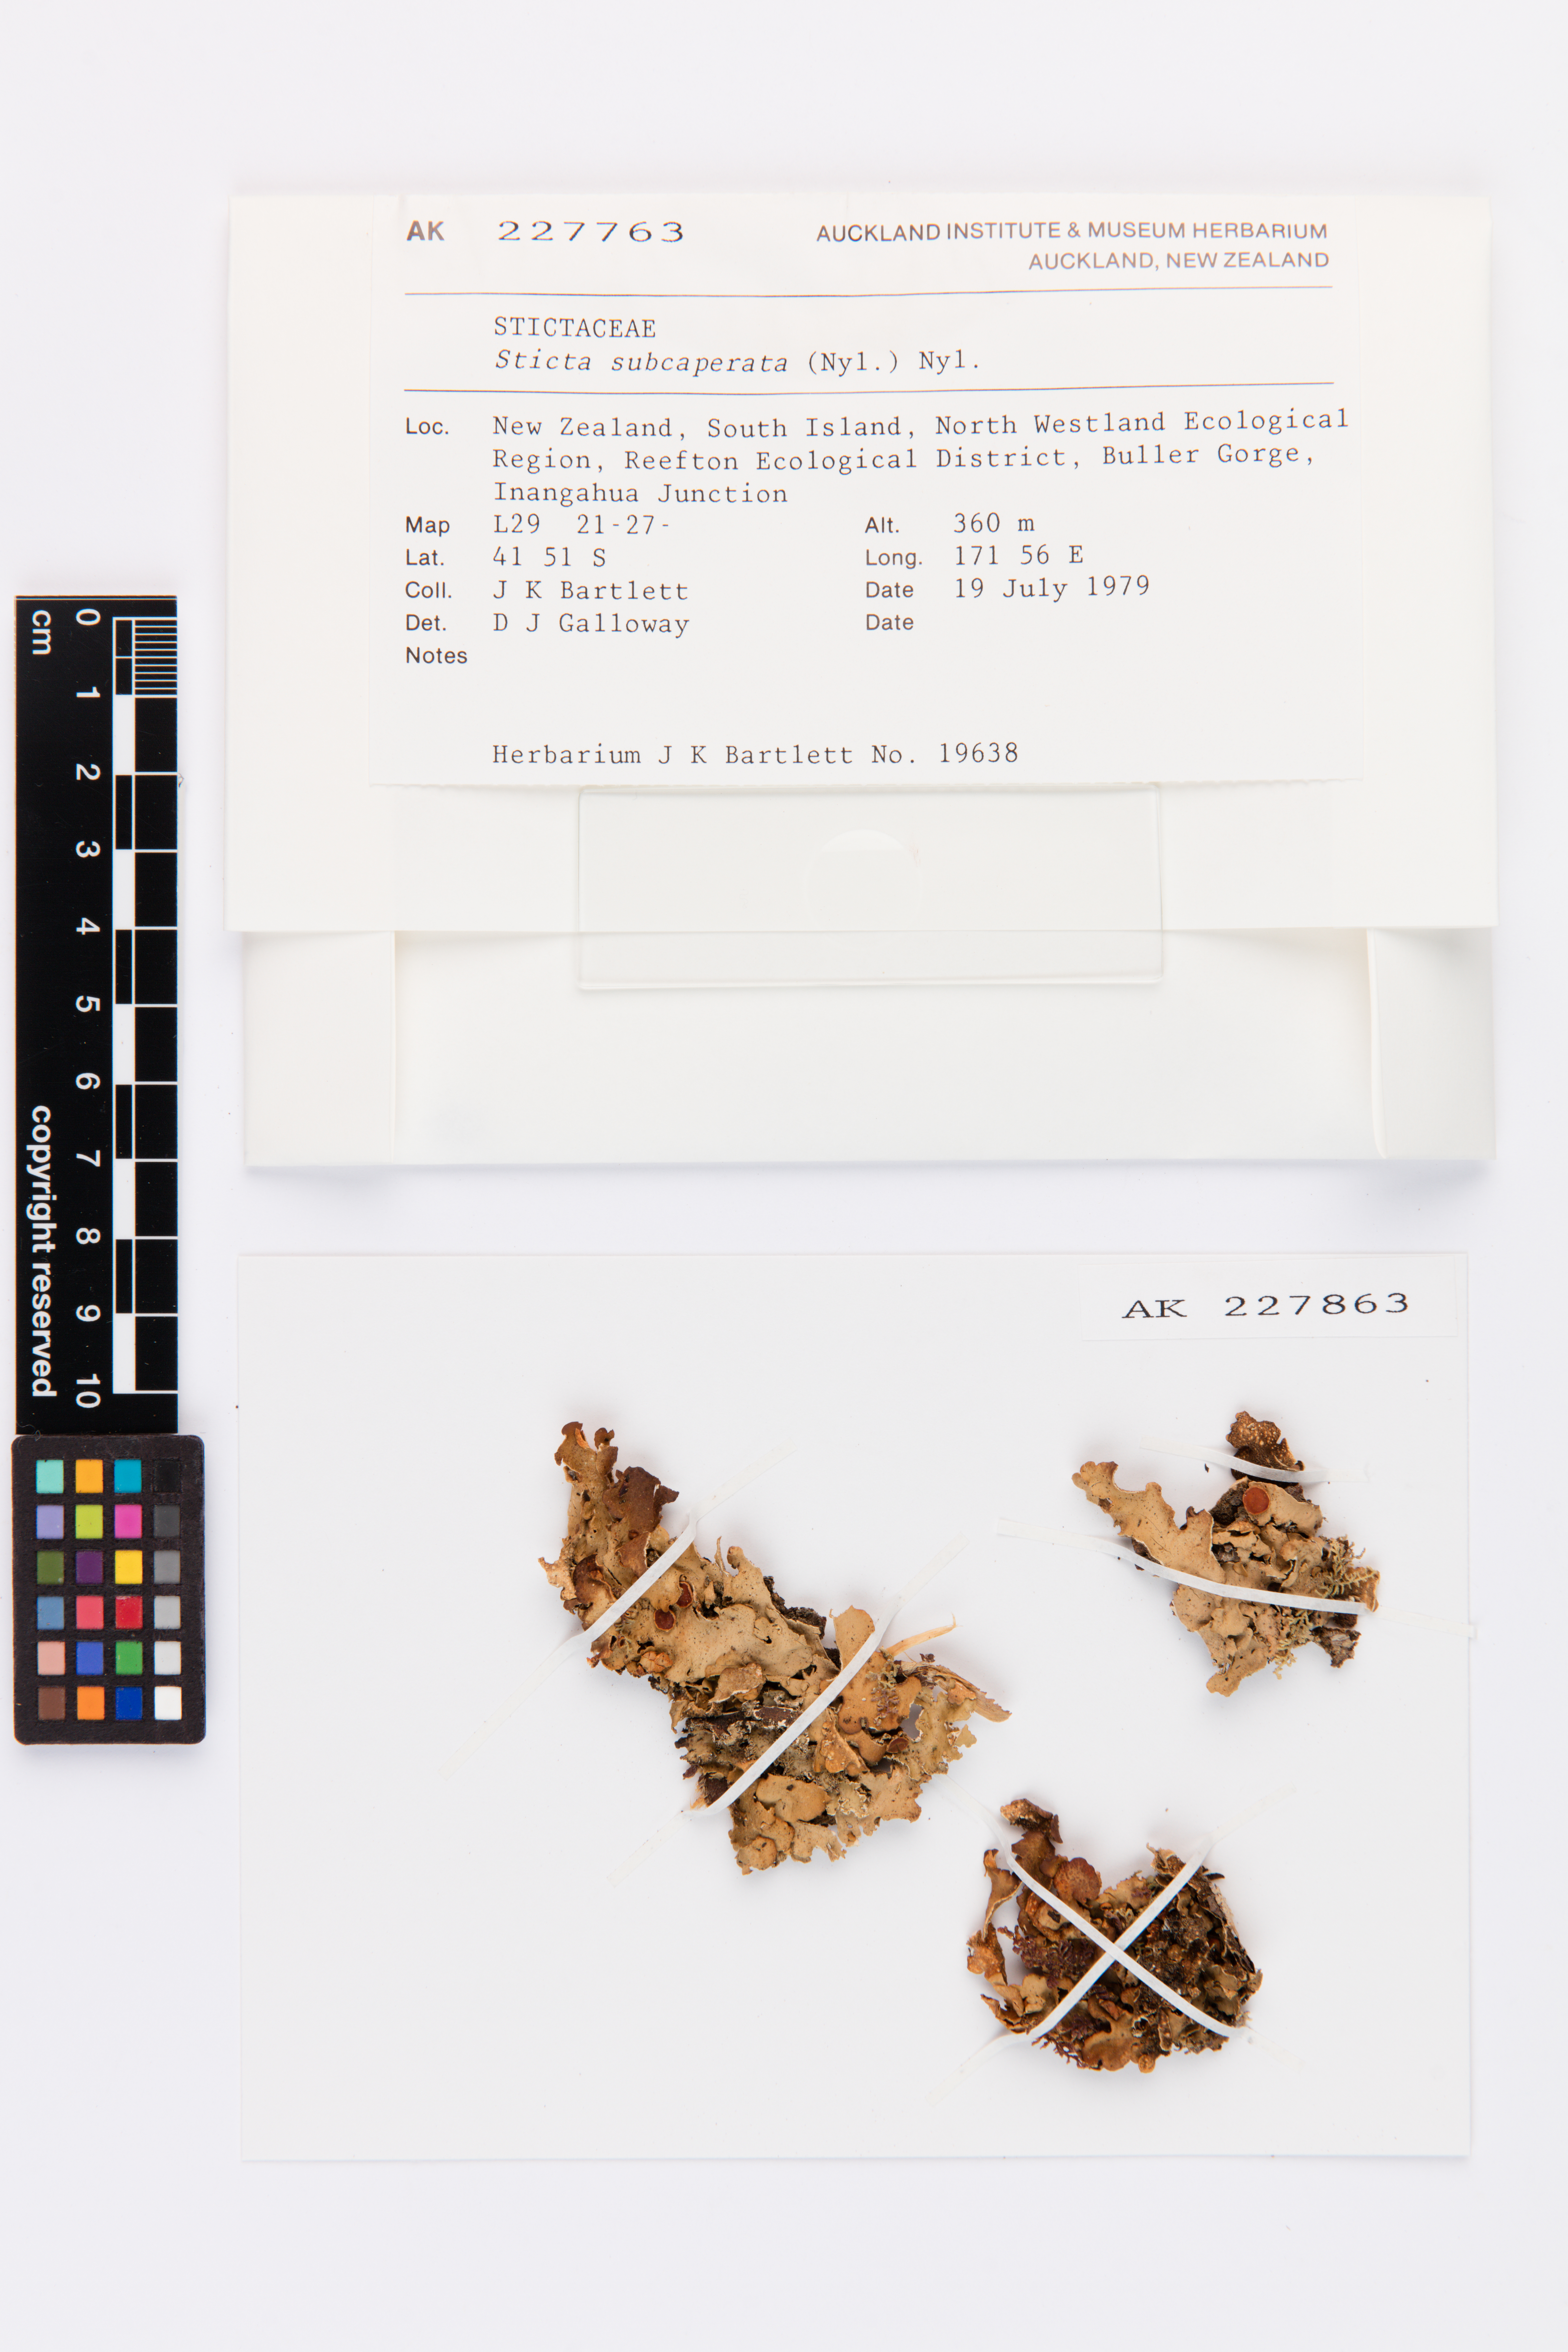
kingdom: Fungi
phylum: Ascomycota
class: Lecanoromycetes
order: Peltigerales
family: Lobariaceae
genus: Sticta
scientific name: Sticta subcaperata
